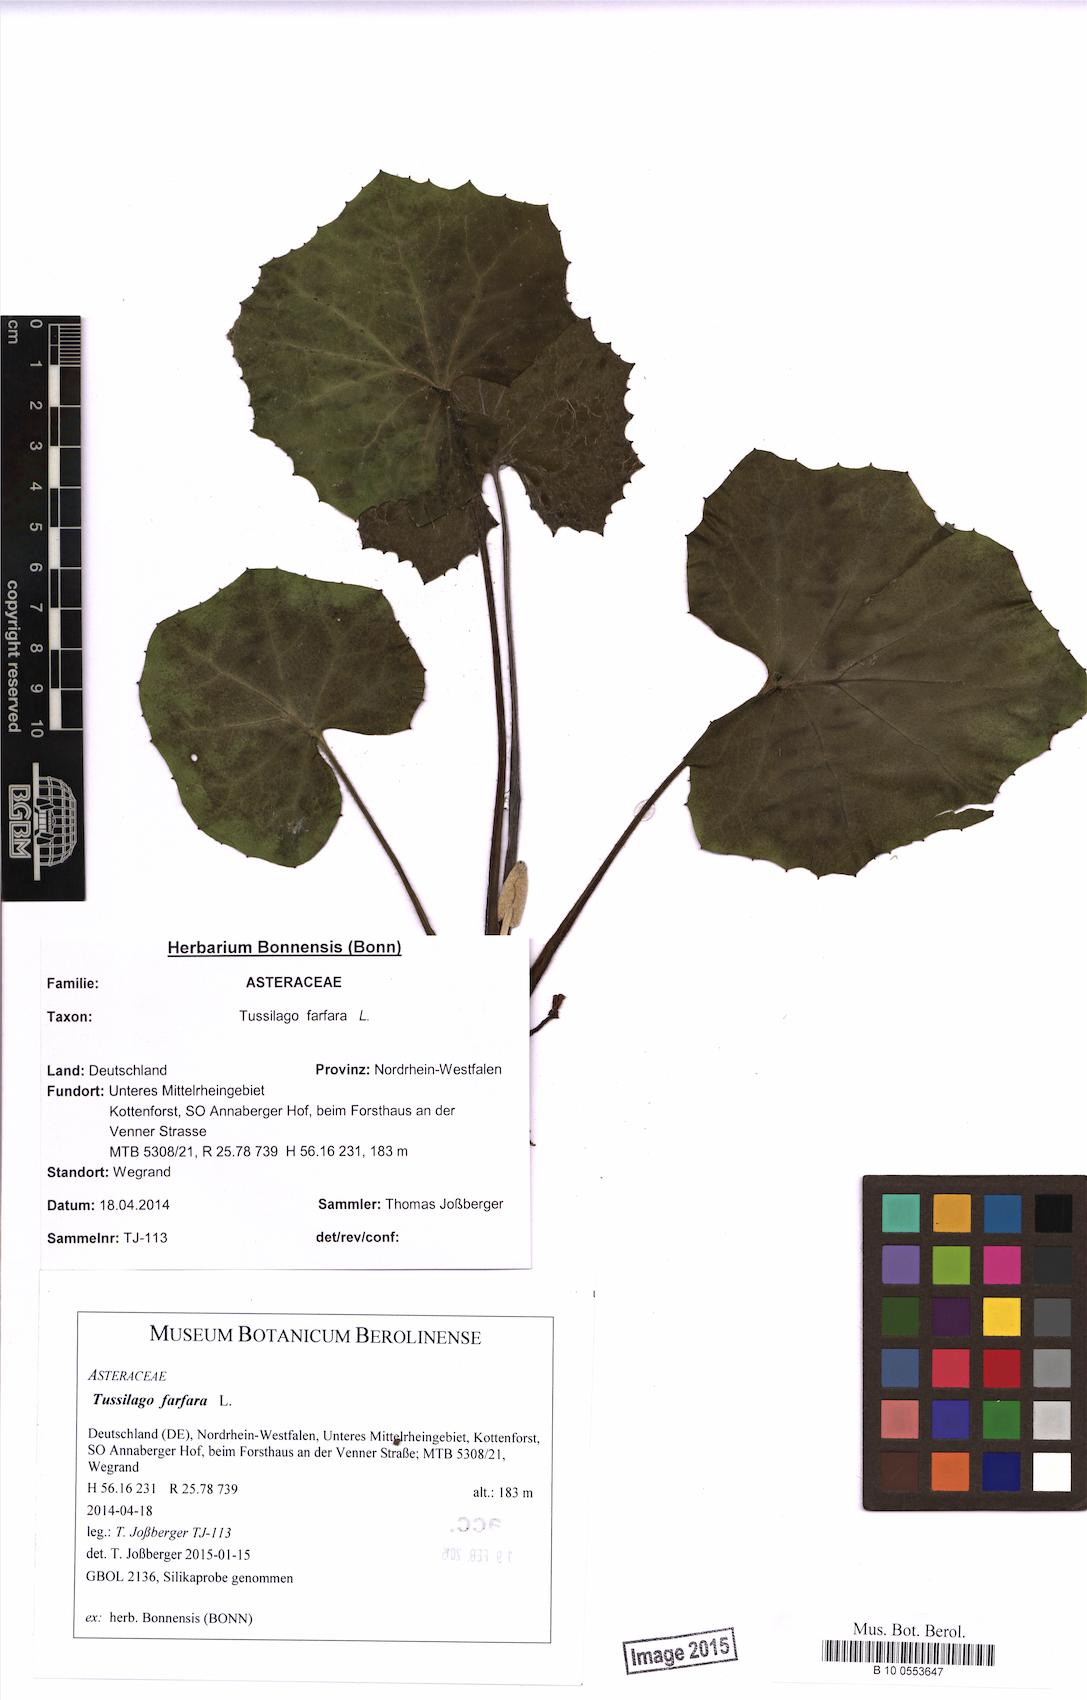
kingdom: Plantae
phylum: Tracheophyta
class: Magnoliopsida
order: Asterales
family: Asteraceae
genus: Tussilago
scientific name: Tussilago farfara
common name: Coltsfoot
